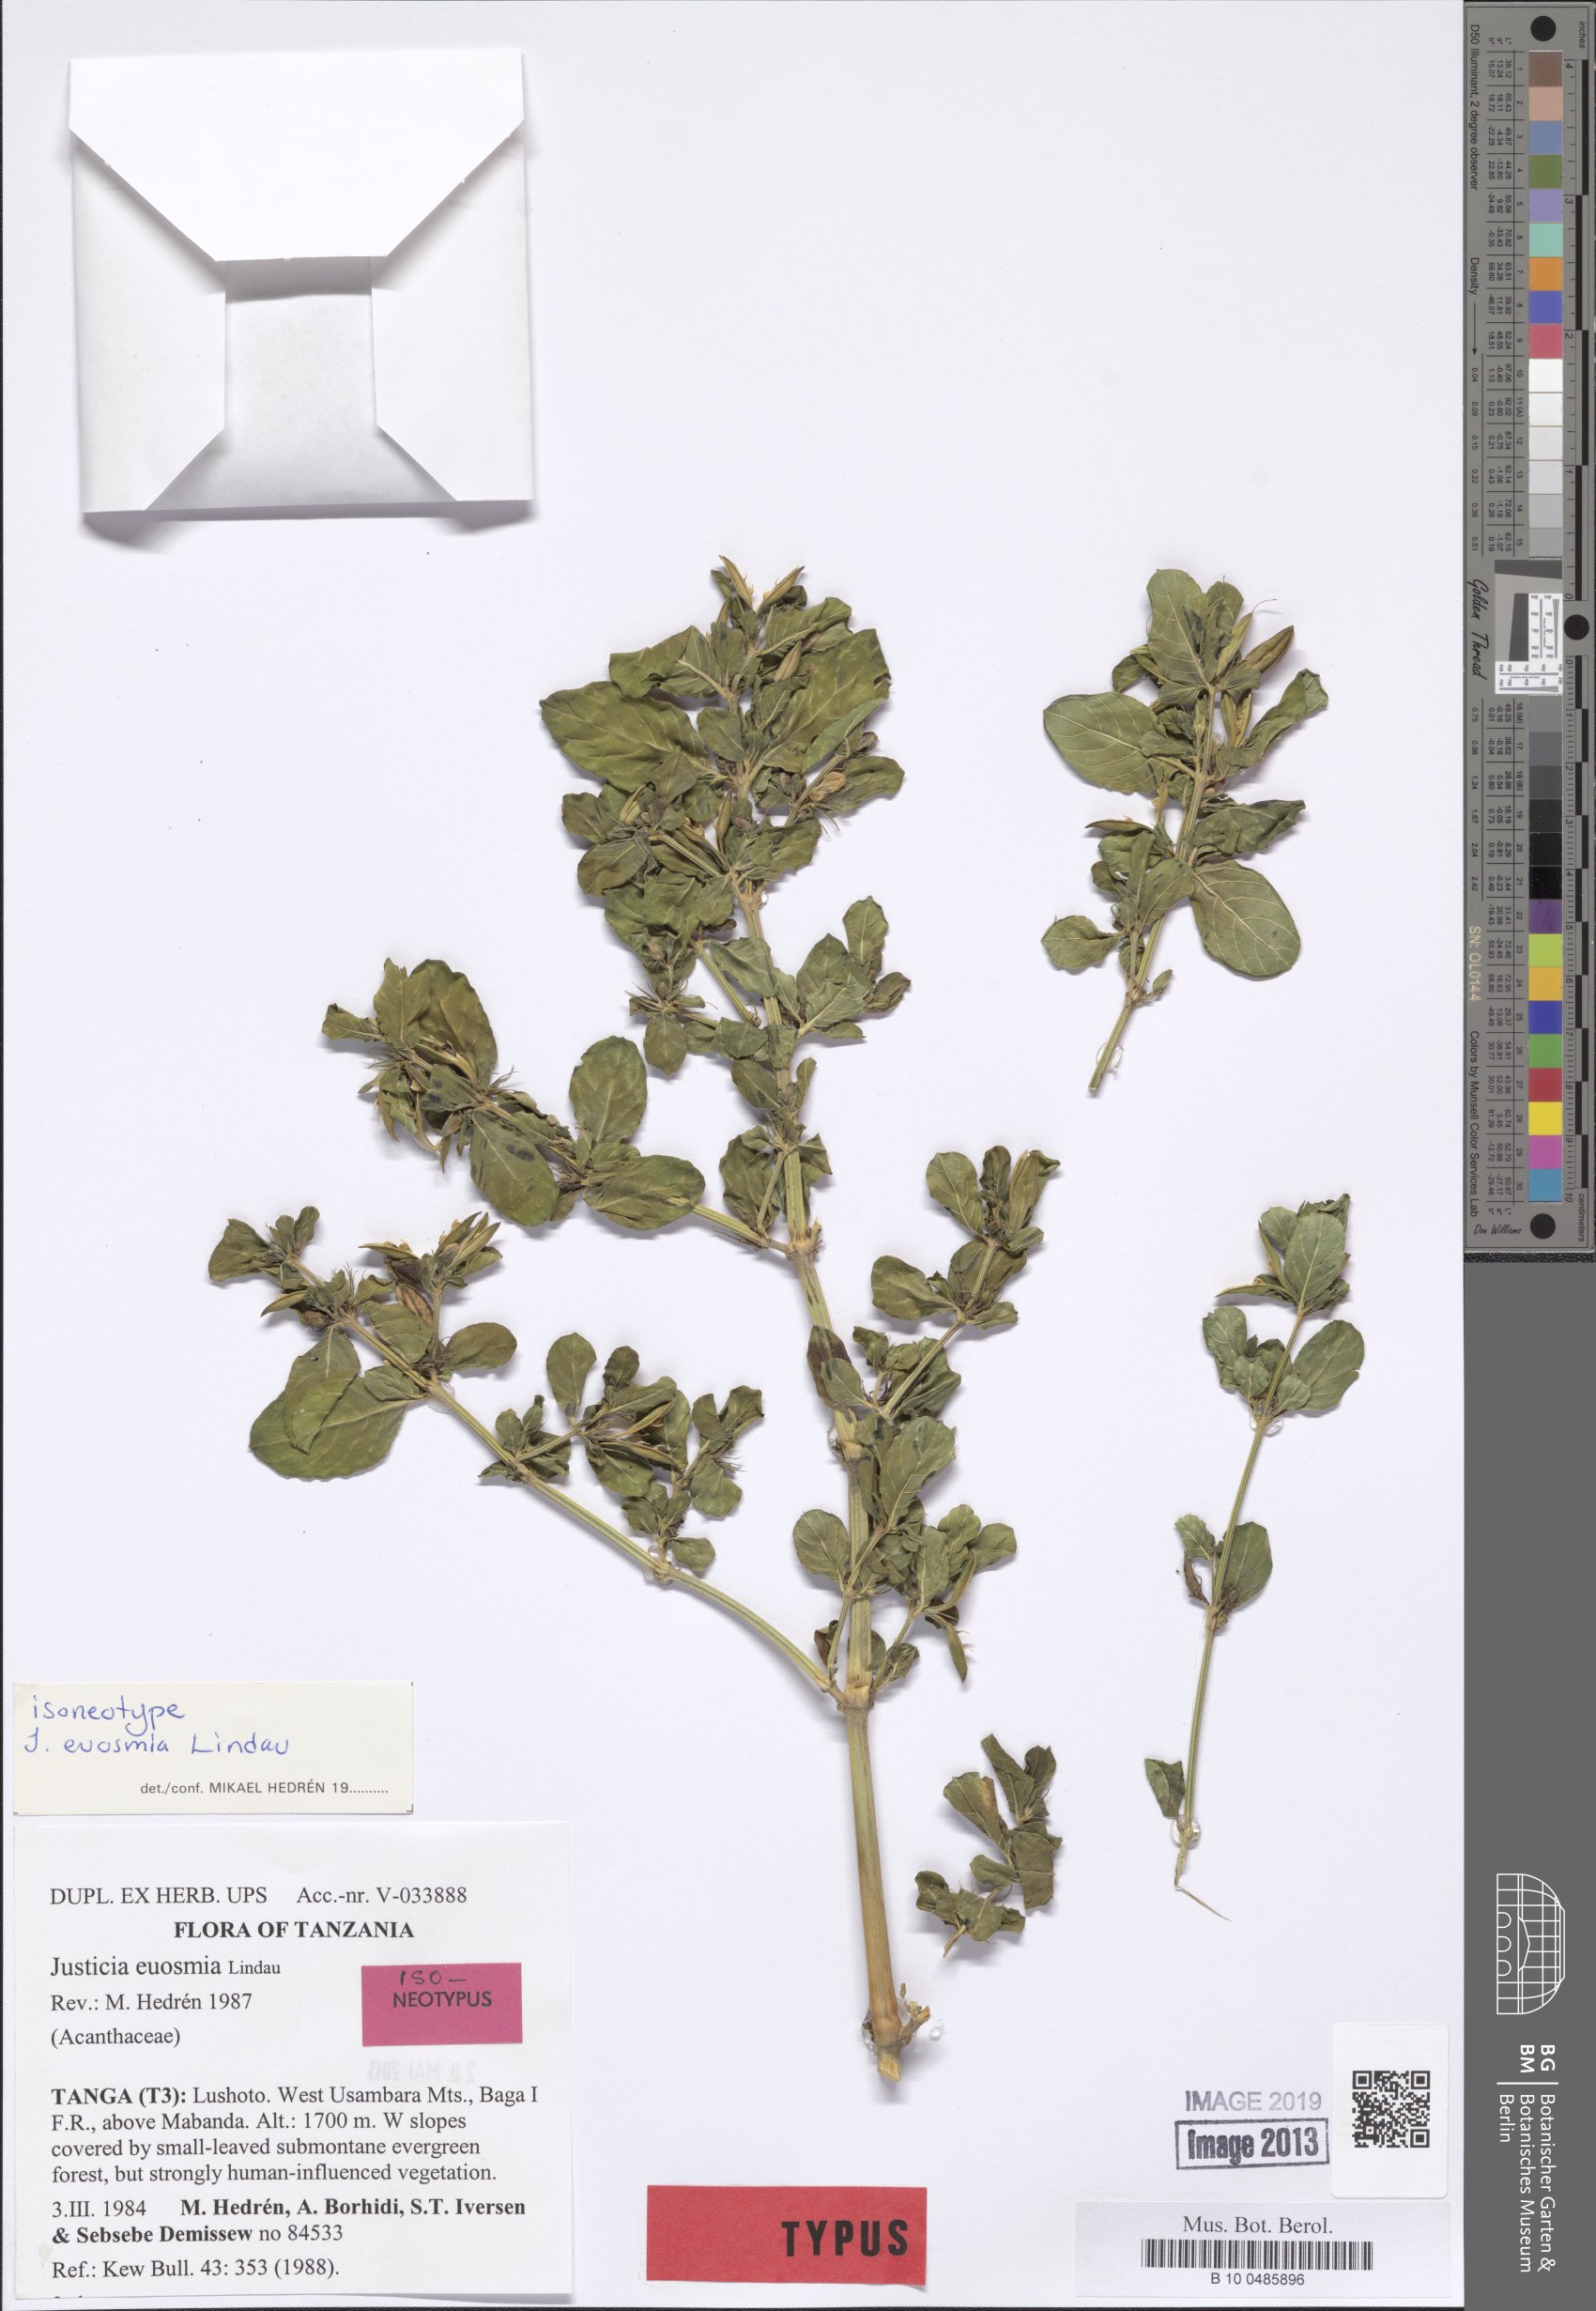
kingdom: Plantae
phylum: Tracheophyta
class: Magnoliopsida
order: Lamiales
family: Acanthaceae
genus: Justicia
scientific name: Justicia euosmia
